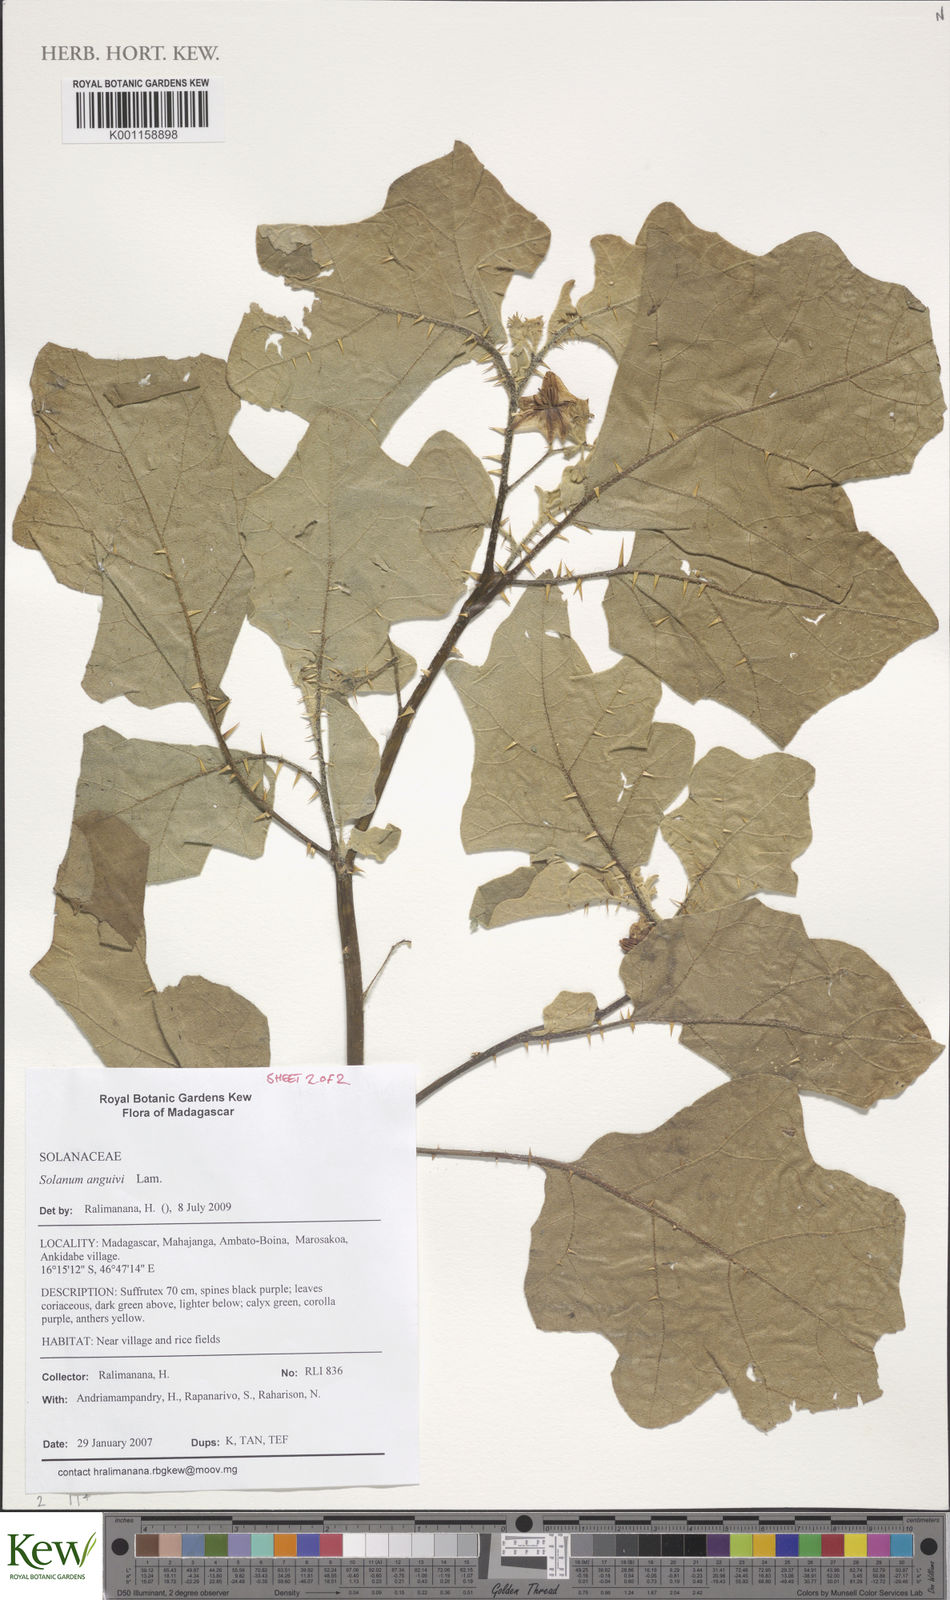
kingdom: Plantae
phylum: Tracheophyta
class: Magnoliopsida
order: Solanales
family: Solanaceae
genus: Solanum
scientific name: Solanum anguivi
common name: Forest bitterberry
